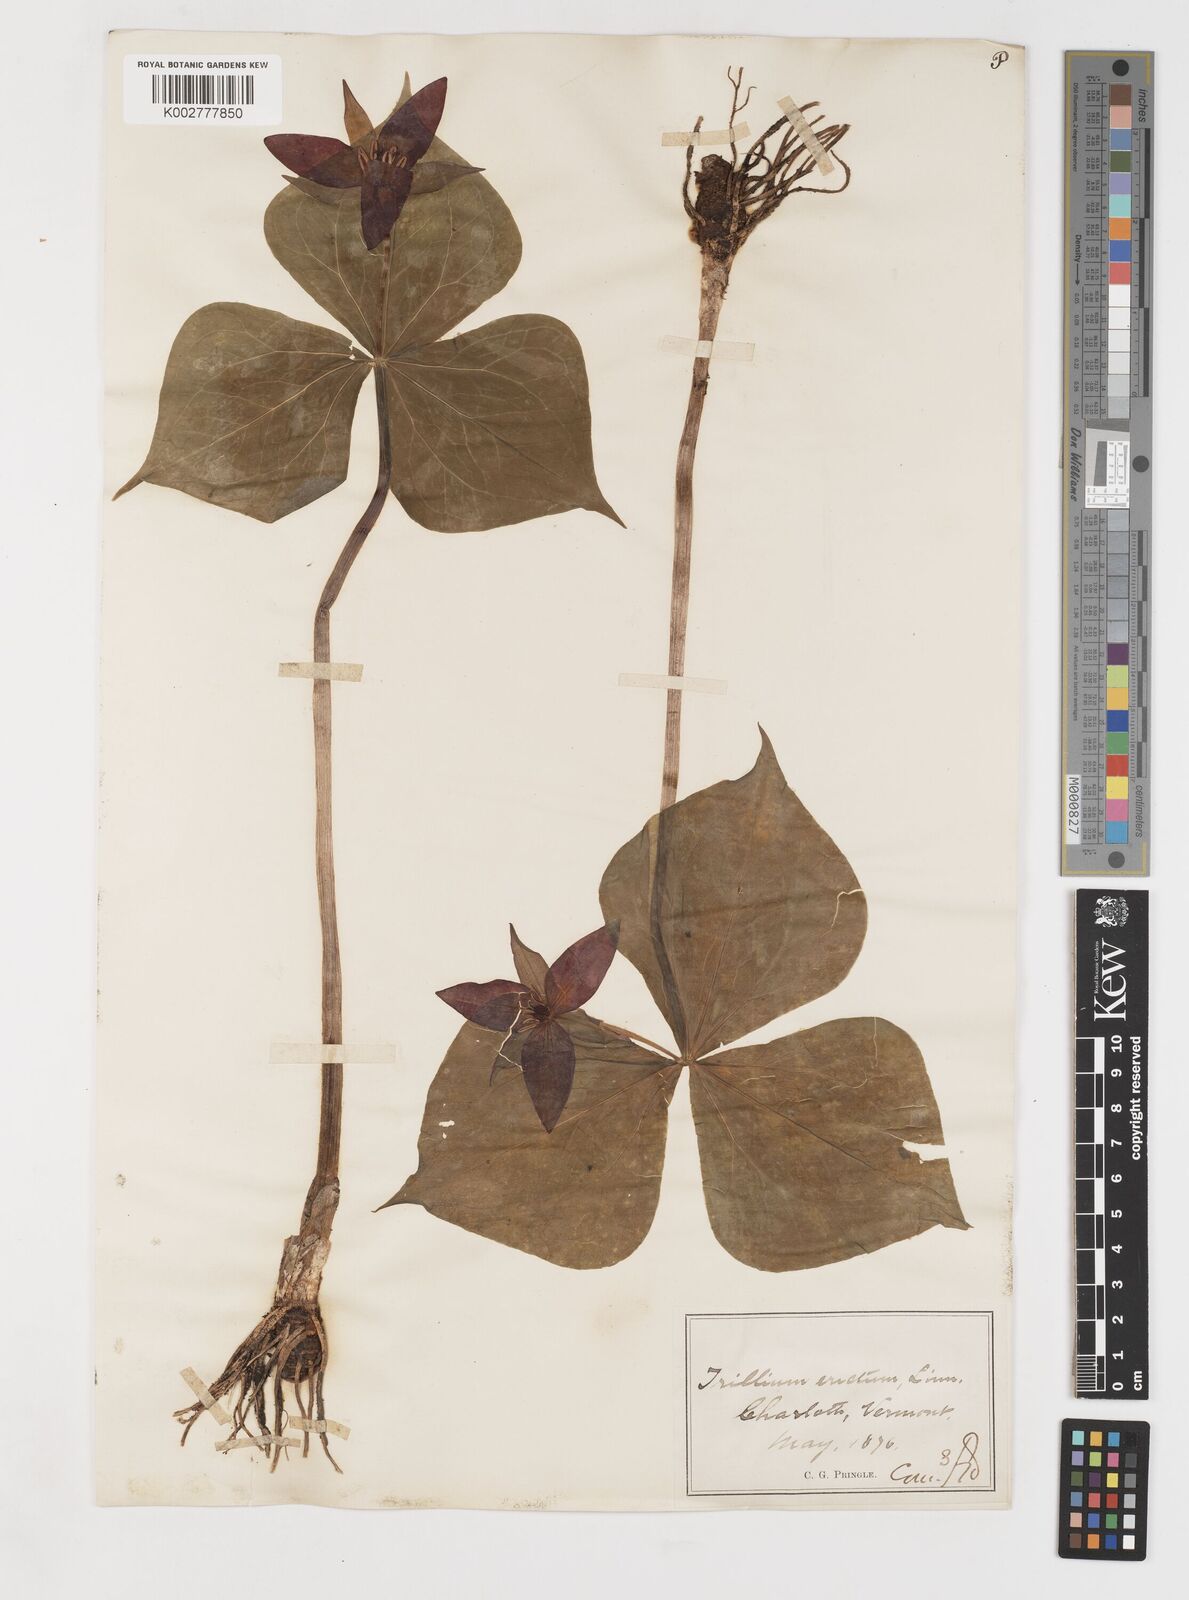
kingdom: Plantae
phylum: Tracheophyta
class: Liliopsida
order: Liliales
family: Melanthiaceae
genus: Trillium
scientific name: Trillium erectum
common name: Purple trillium
